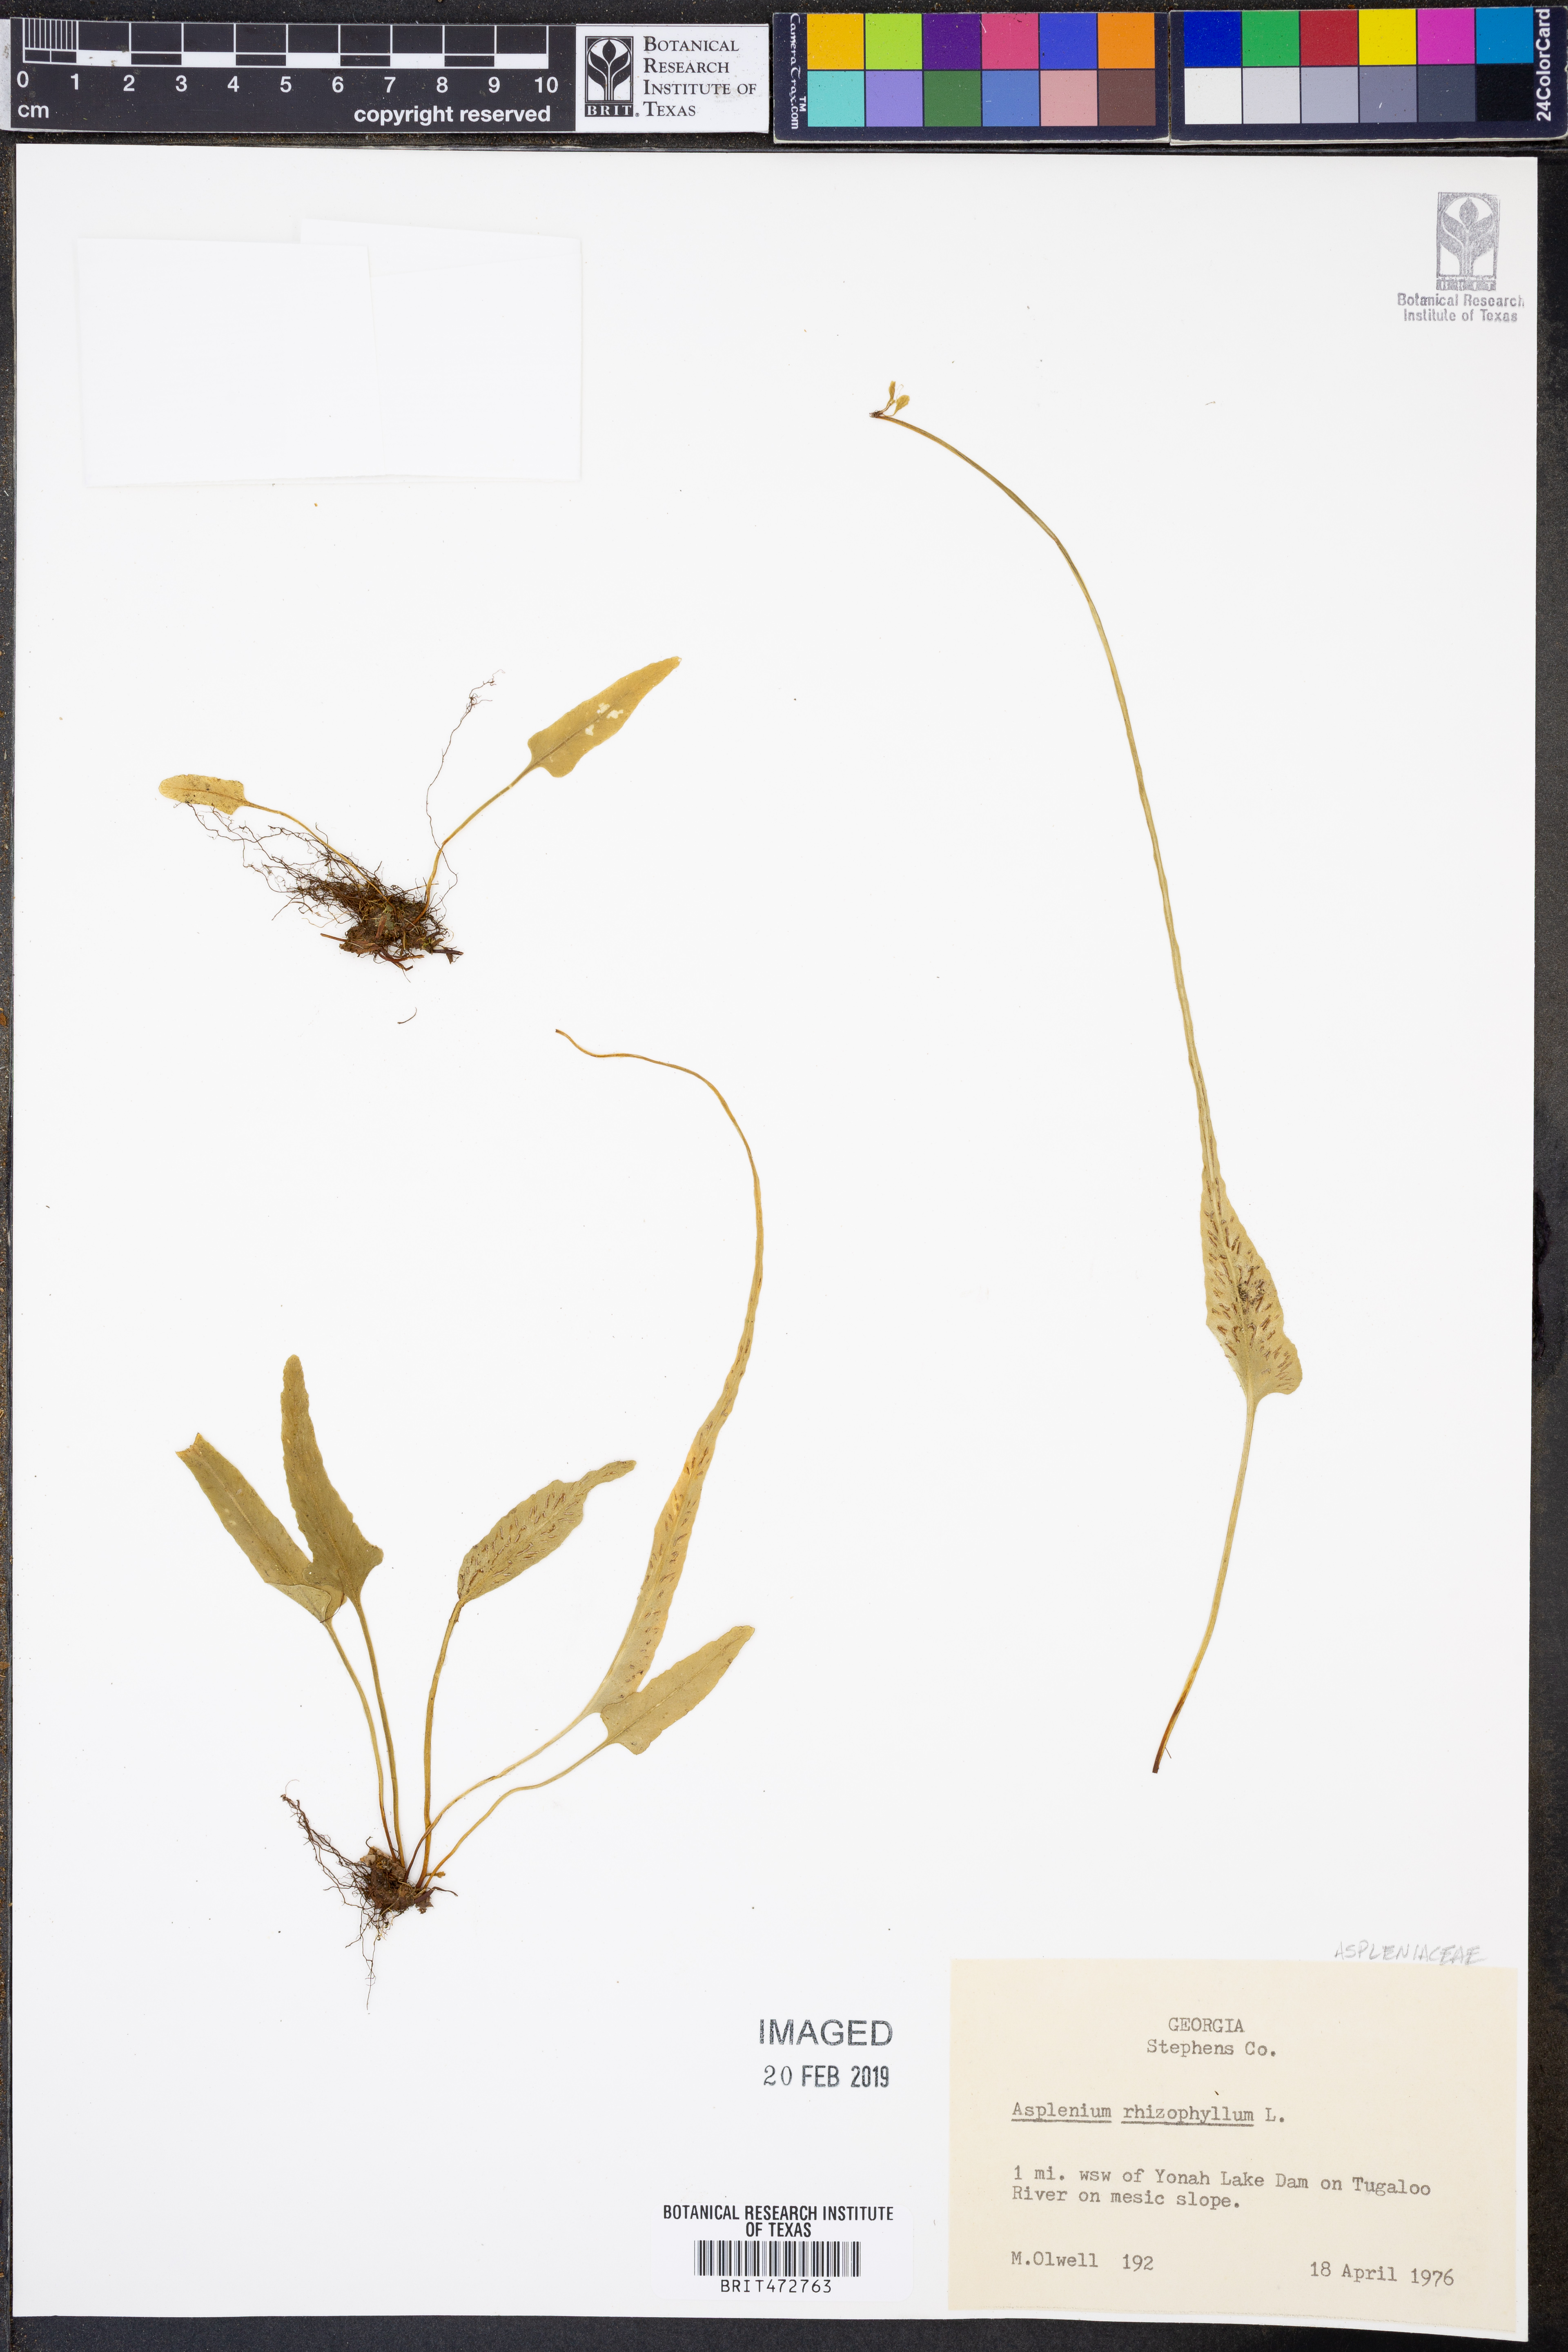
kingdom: Plantae
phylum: Tracheophyta
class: Polypodiopsida
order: Polypodiales
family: Aspleniaceae
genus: Asplenium
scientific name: Asplenium rhizophyllum
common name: Walking fern
